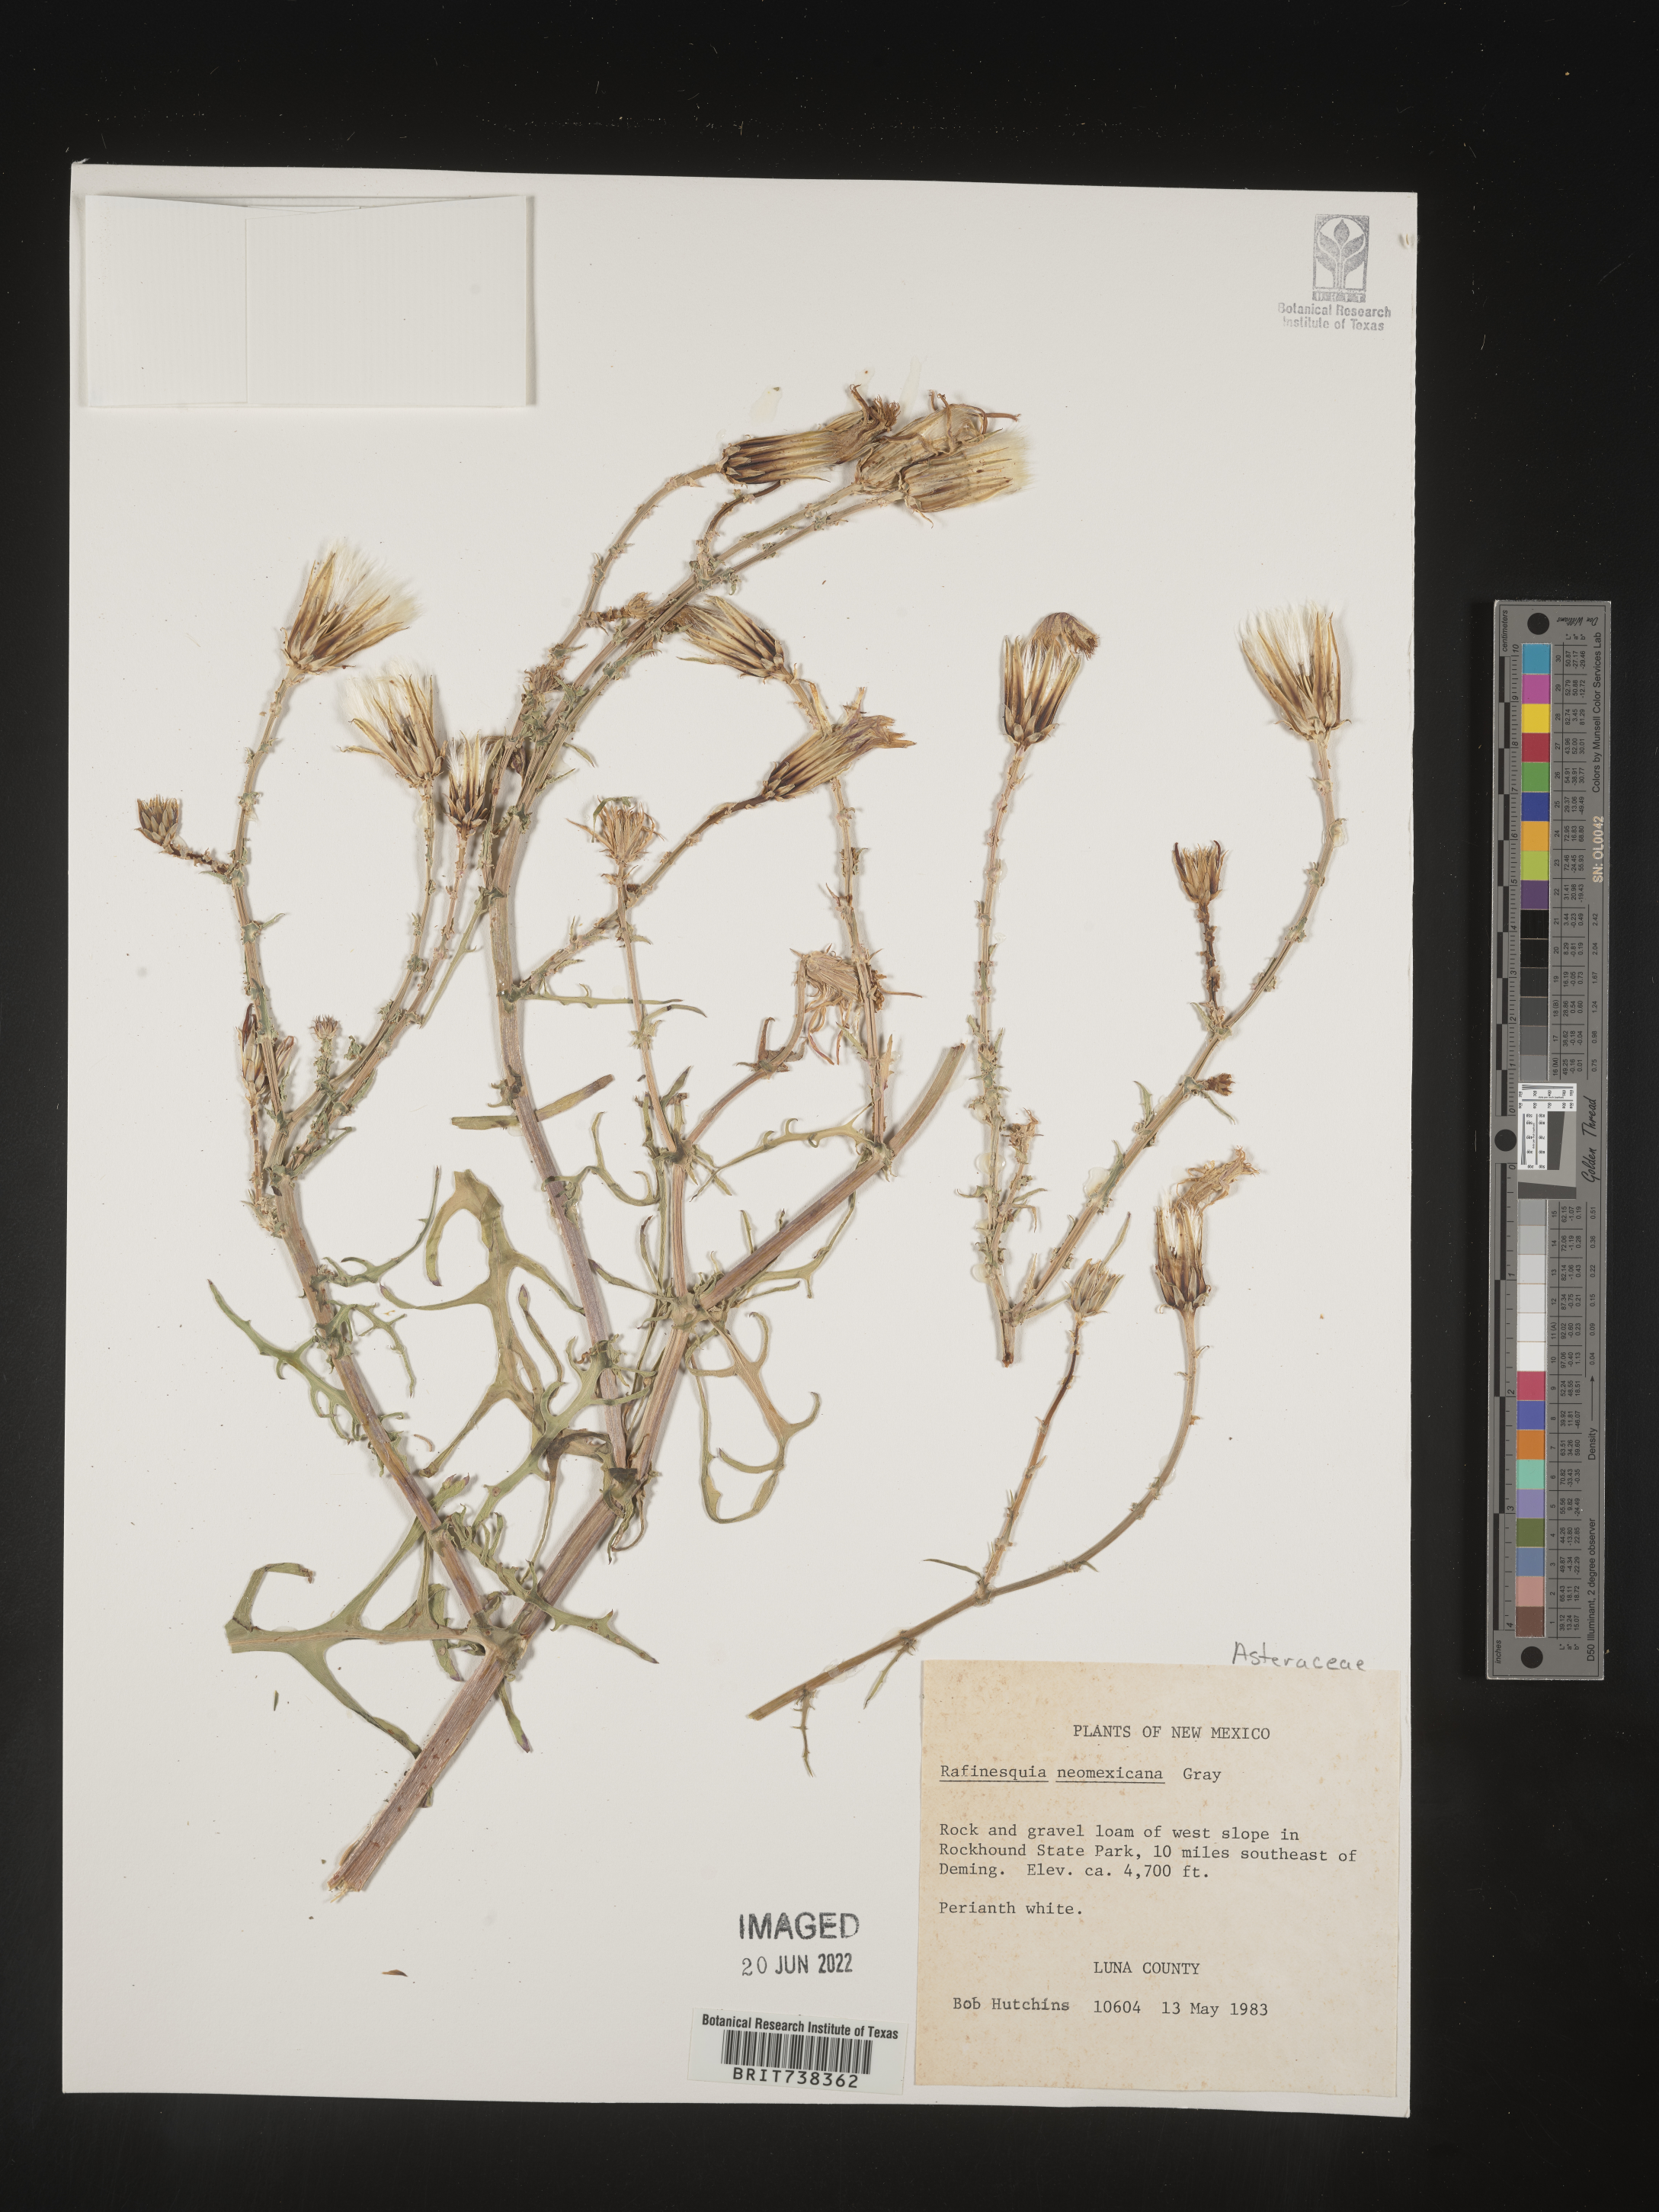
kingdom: Plantae
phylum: Tracheophyta
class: Magnoliopsida
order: Asterales
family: Asteraceae
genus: Rafinesquia
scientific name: Rafinesquia
